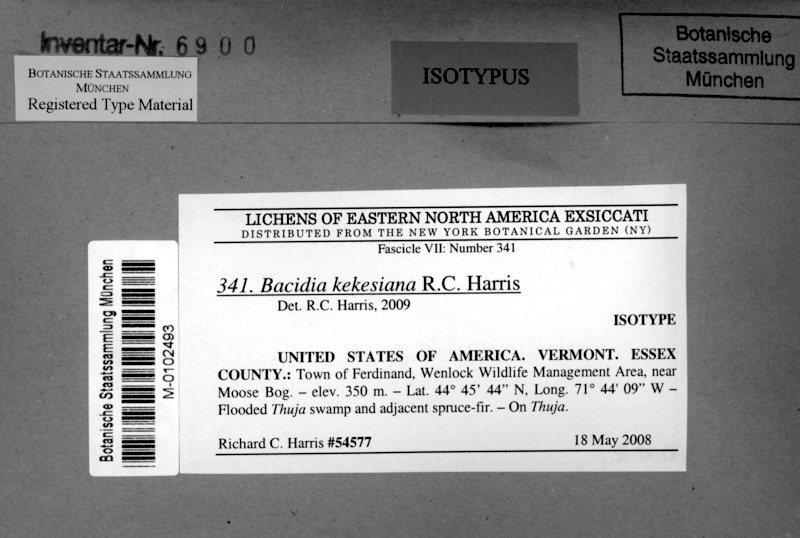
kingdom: Fungi
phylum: Ascomycota
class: Lecanoromycetes
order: Lecanorales
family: Ramalinaceae
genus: Bacidia
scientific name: Bacidia kekesiana
